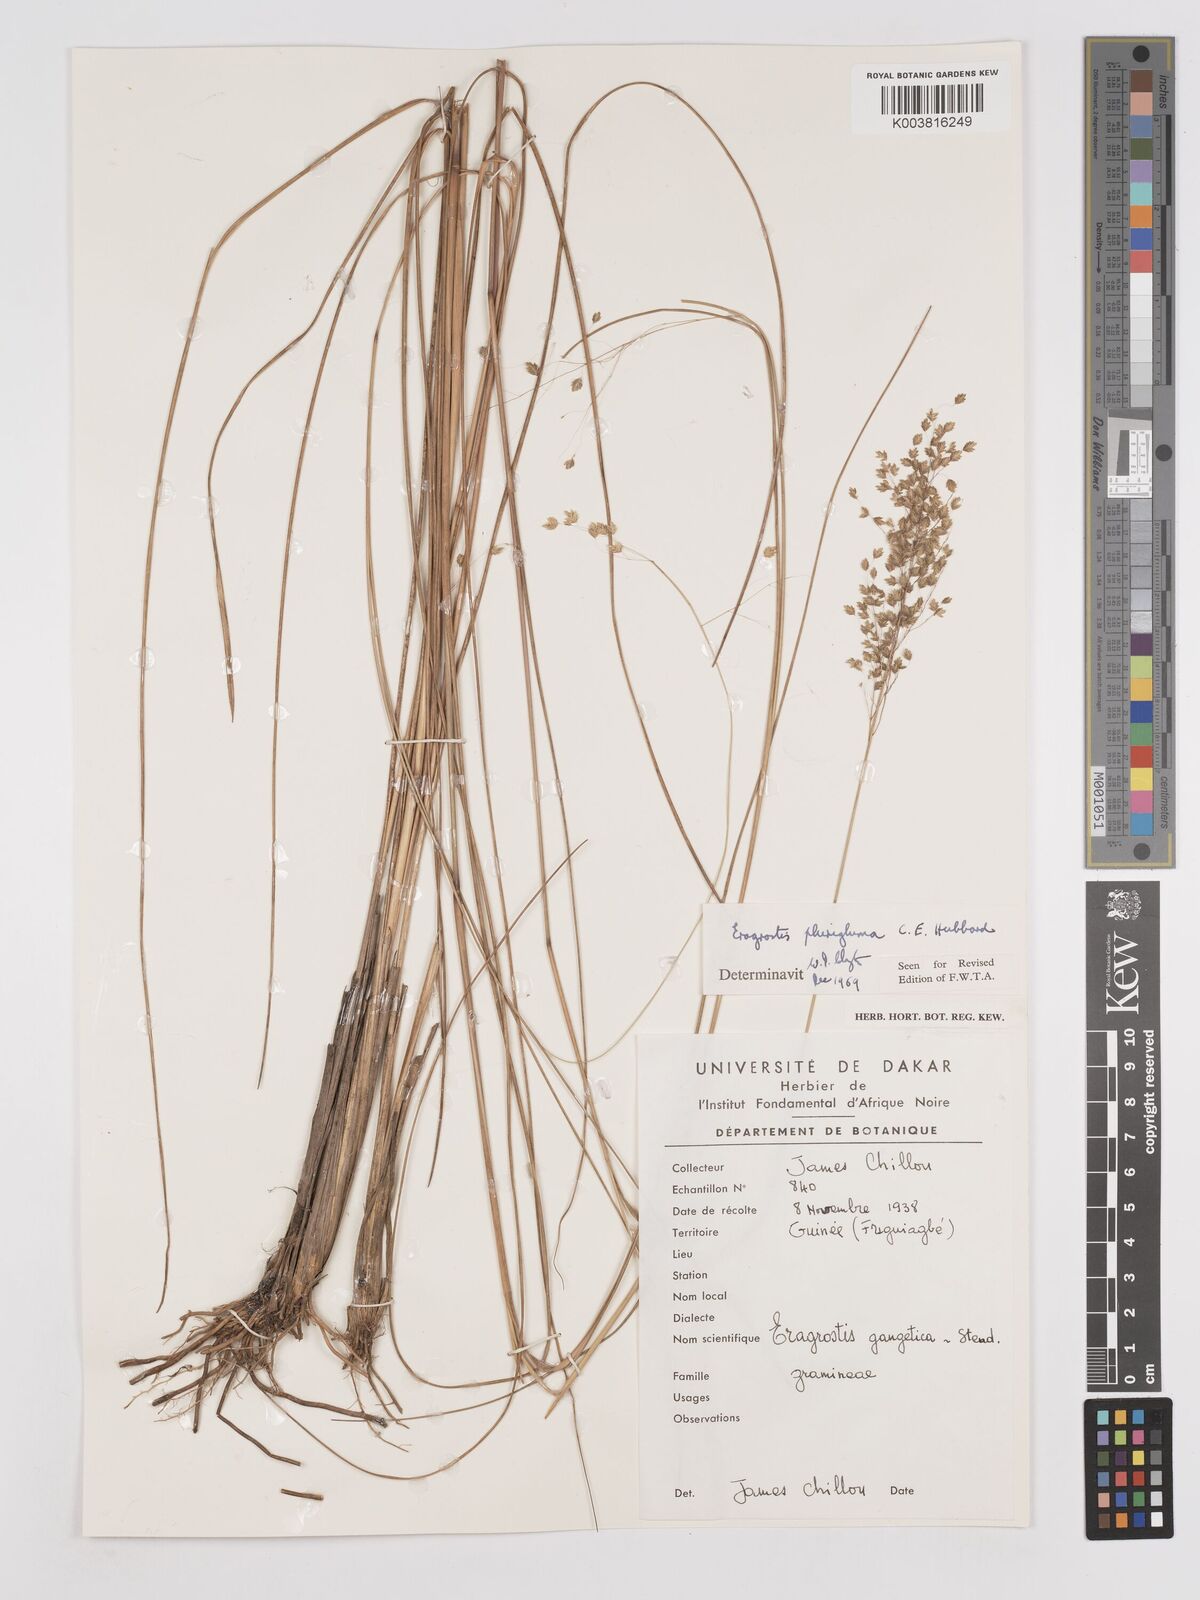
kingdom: Plantae
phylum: Tracheophyta
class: Liliopsida
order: Poales
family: Poaceae
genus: Eragrostis
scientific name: Eragrostis plurigluma
